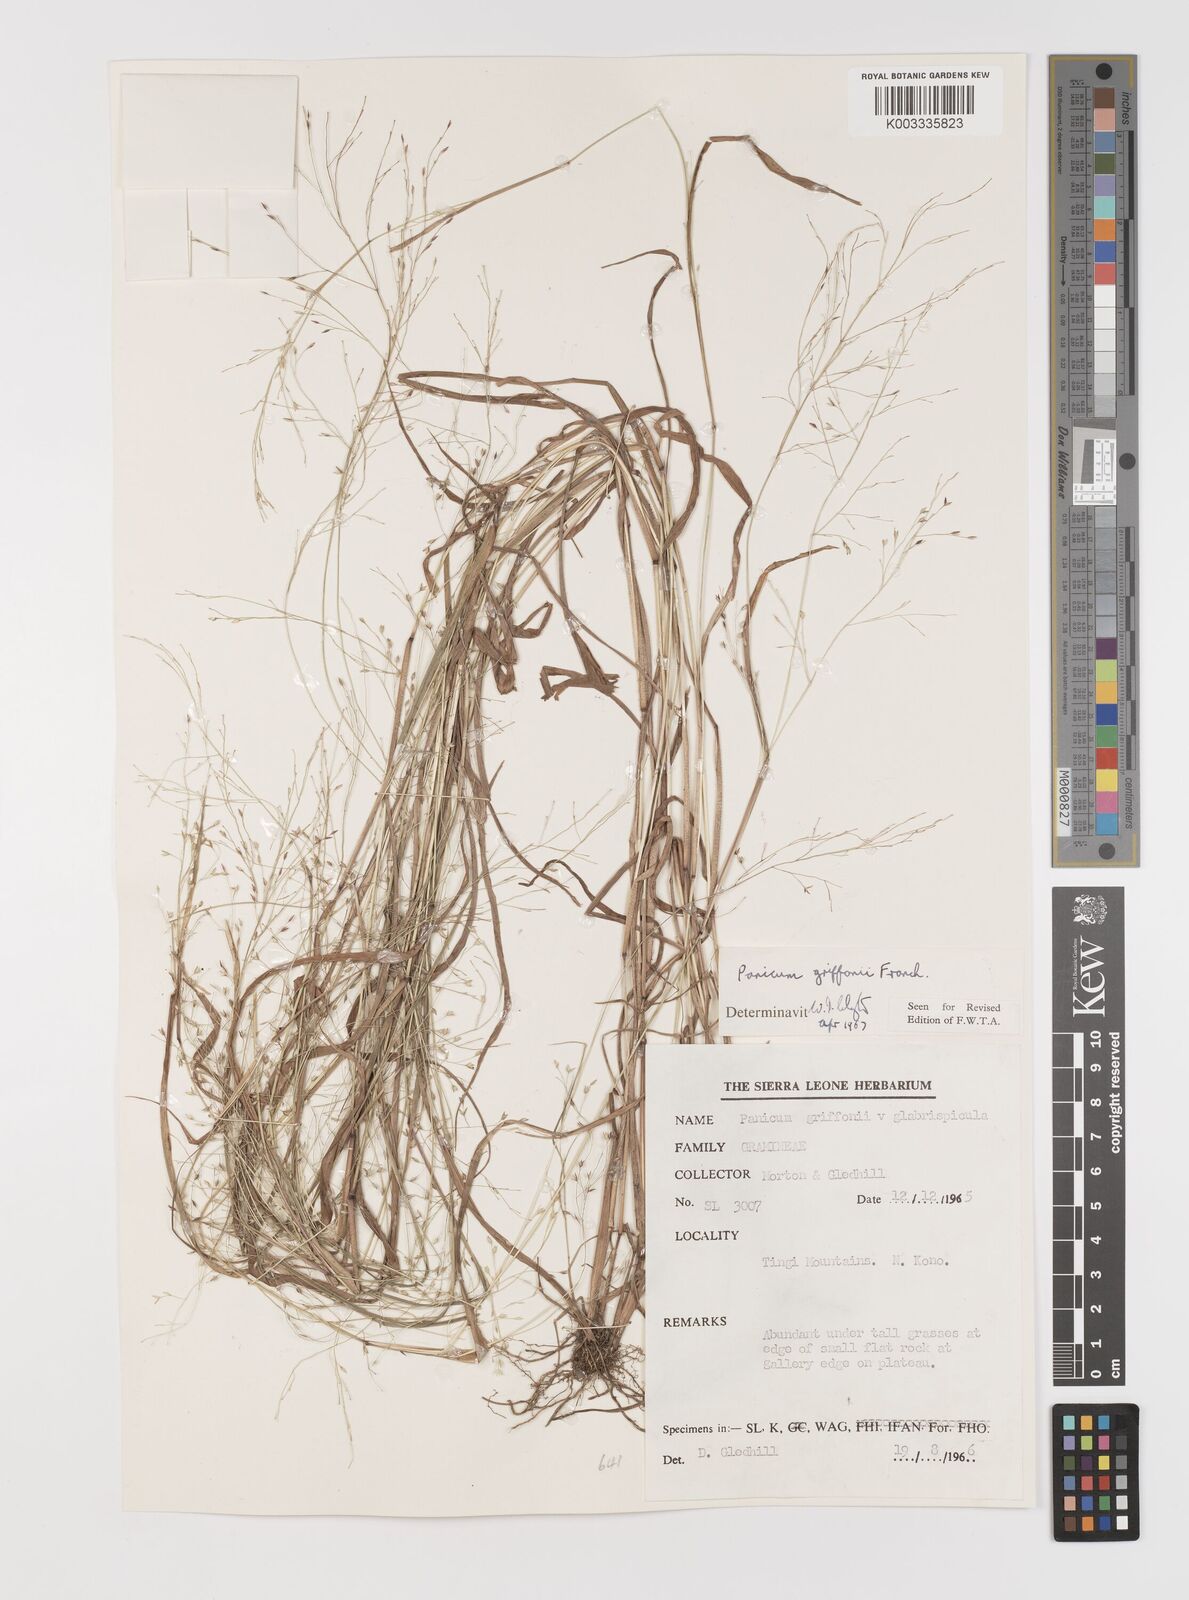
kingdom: Plantae
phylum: Tracheophyta
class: Liliopsida
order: Poales
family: Poaceae
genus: Panicum
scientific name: Panicum griffonii
